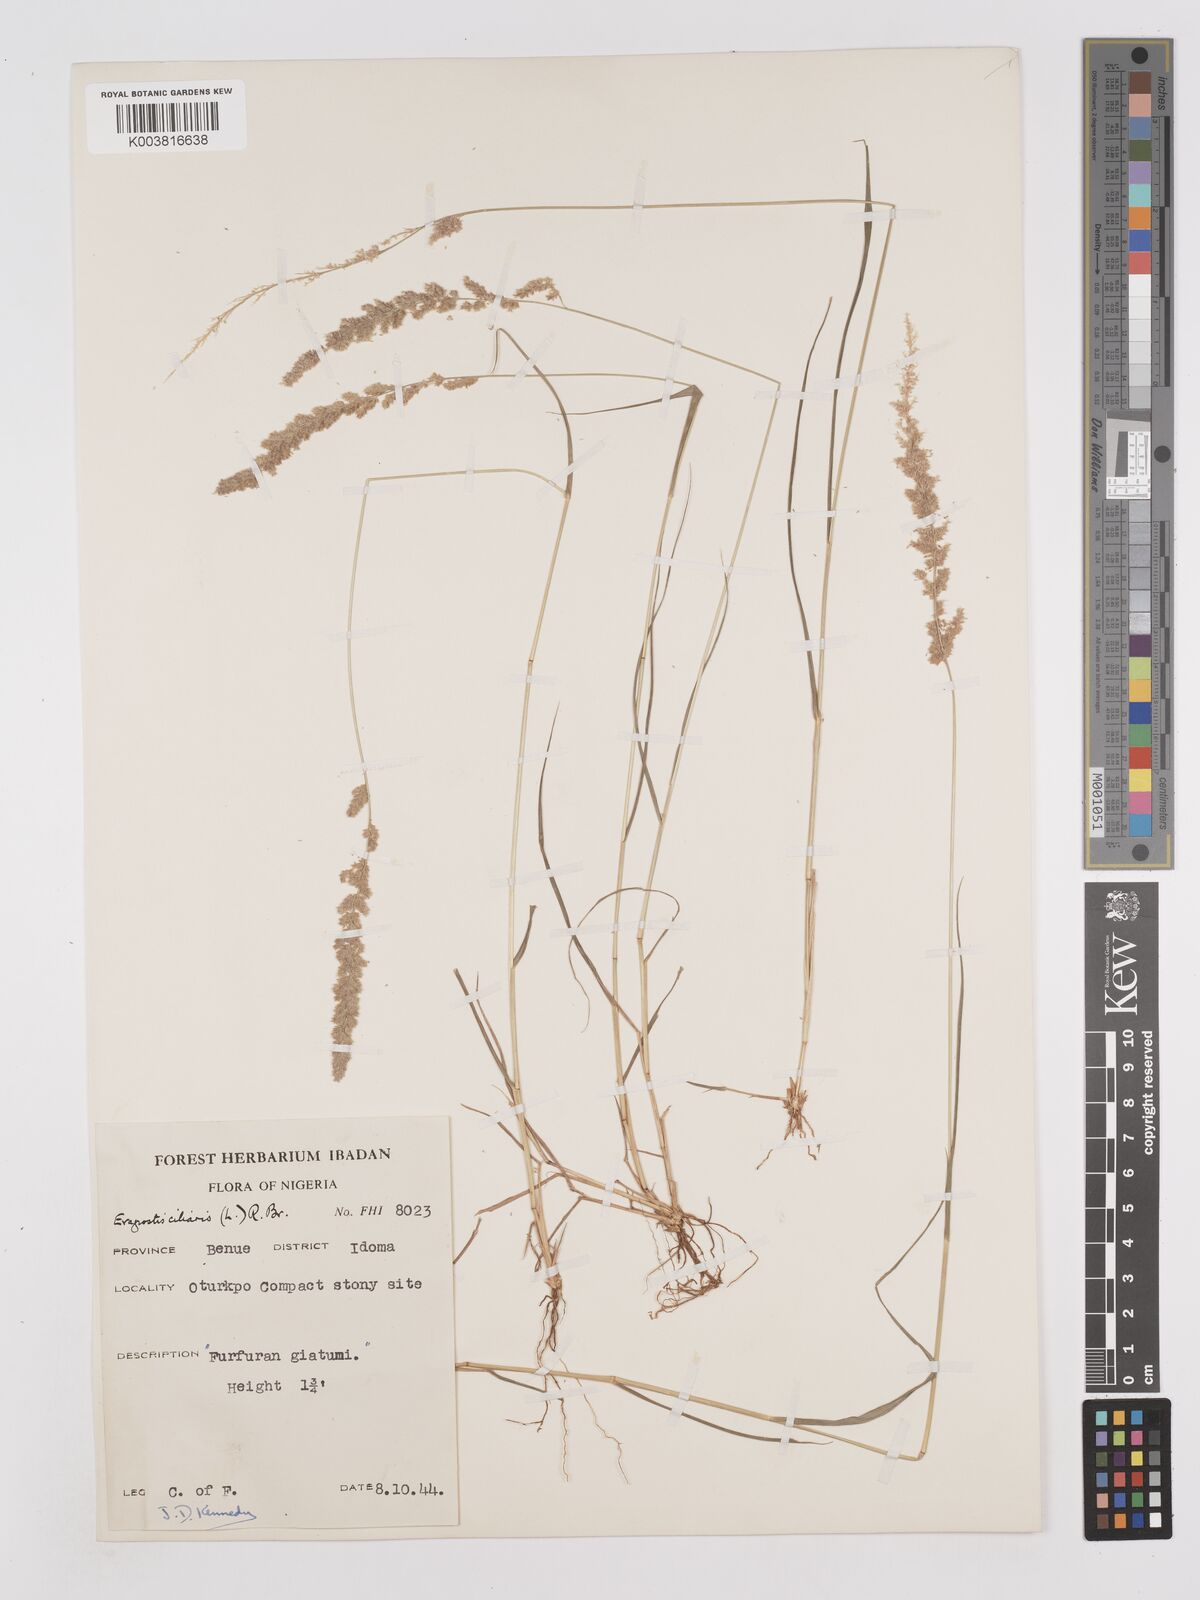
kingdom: Plantae
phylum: Tracheophyta
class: Liliopsida
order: Poales
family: Poaceae
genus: Eragrostis
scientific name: Eragrostis ciliaris
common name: Gophertail lovegrass
